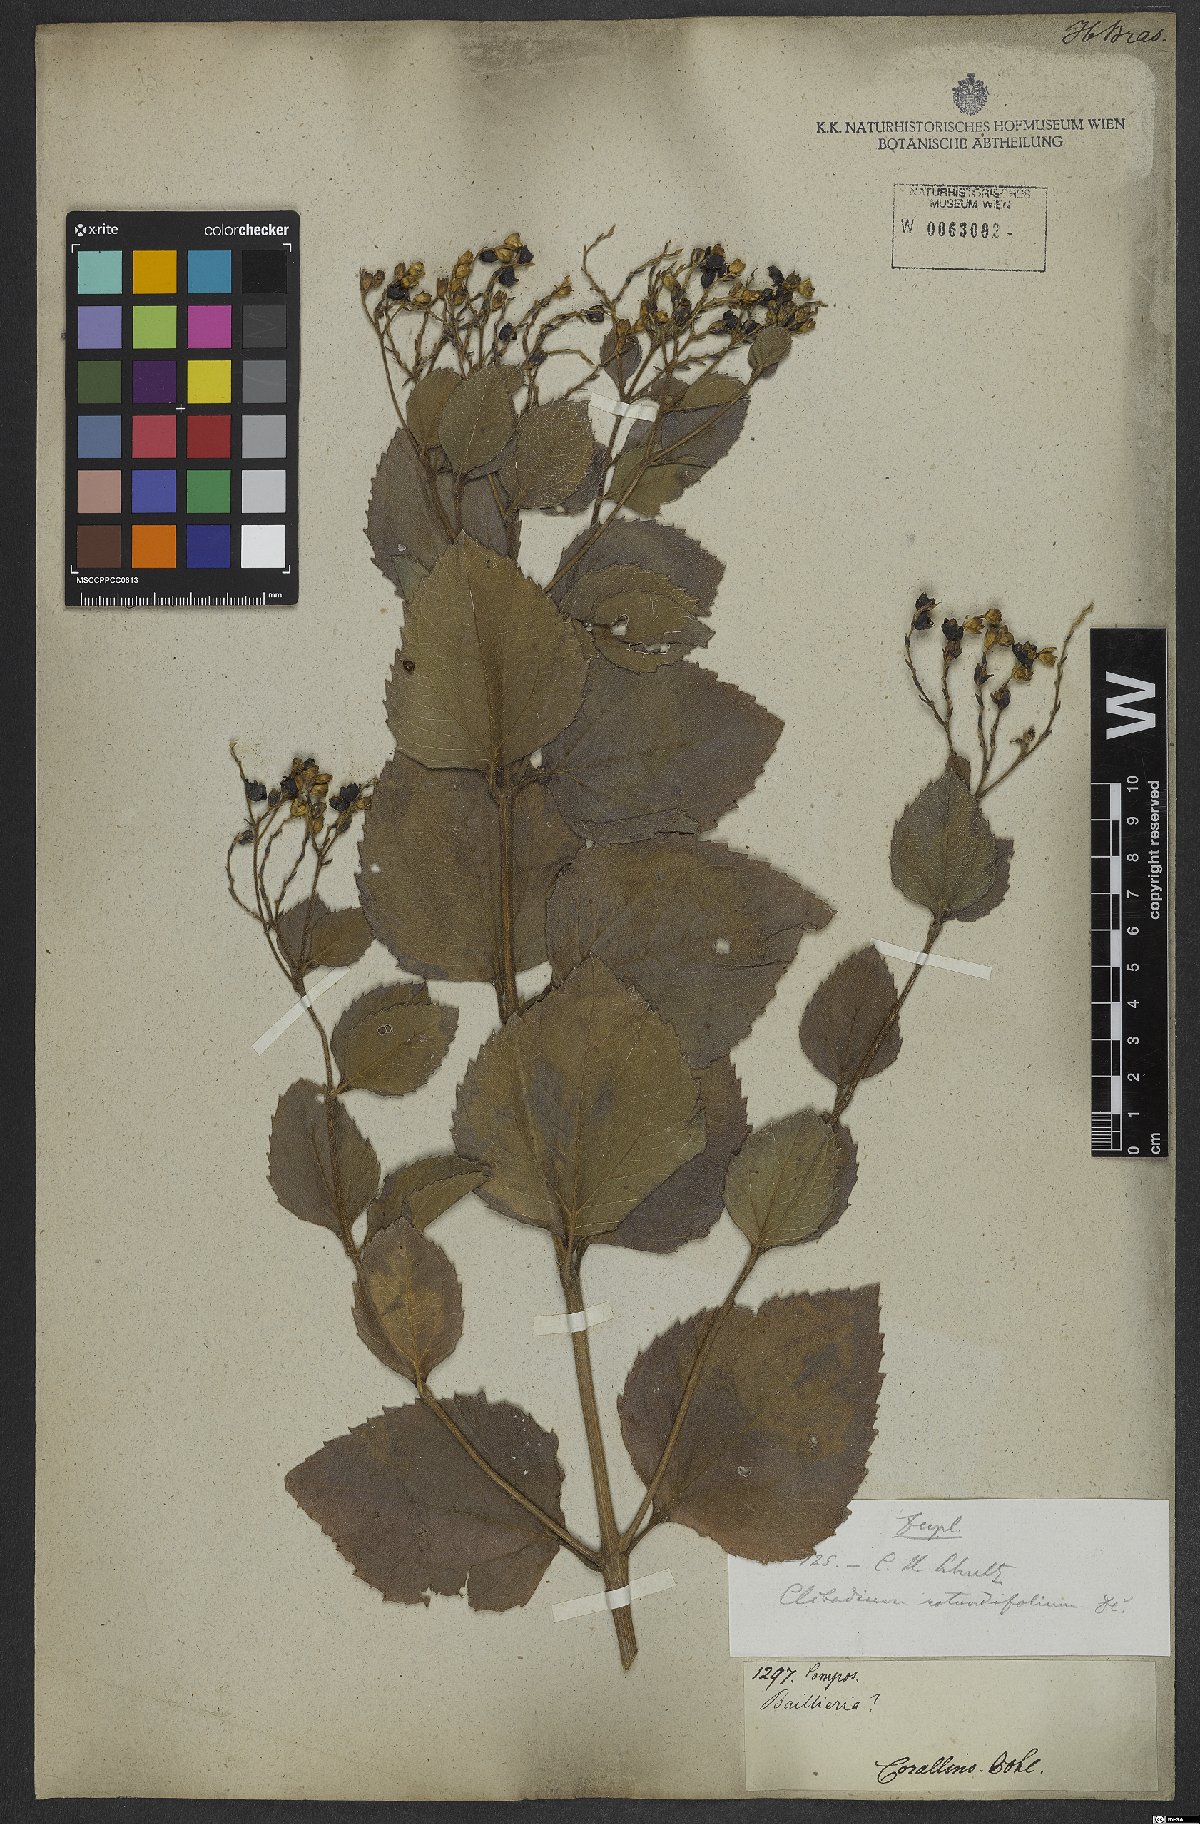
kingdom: Plantae
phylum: Tracheophyta
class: Magnoliopsida
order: Asterales
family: Asteraceae
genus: Clibadium
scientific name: Clibadium armanii
